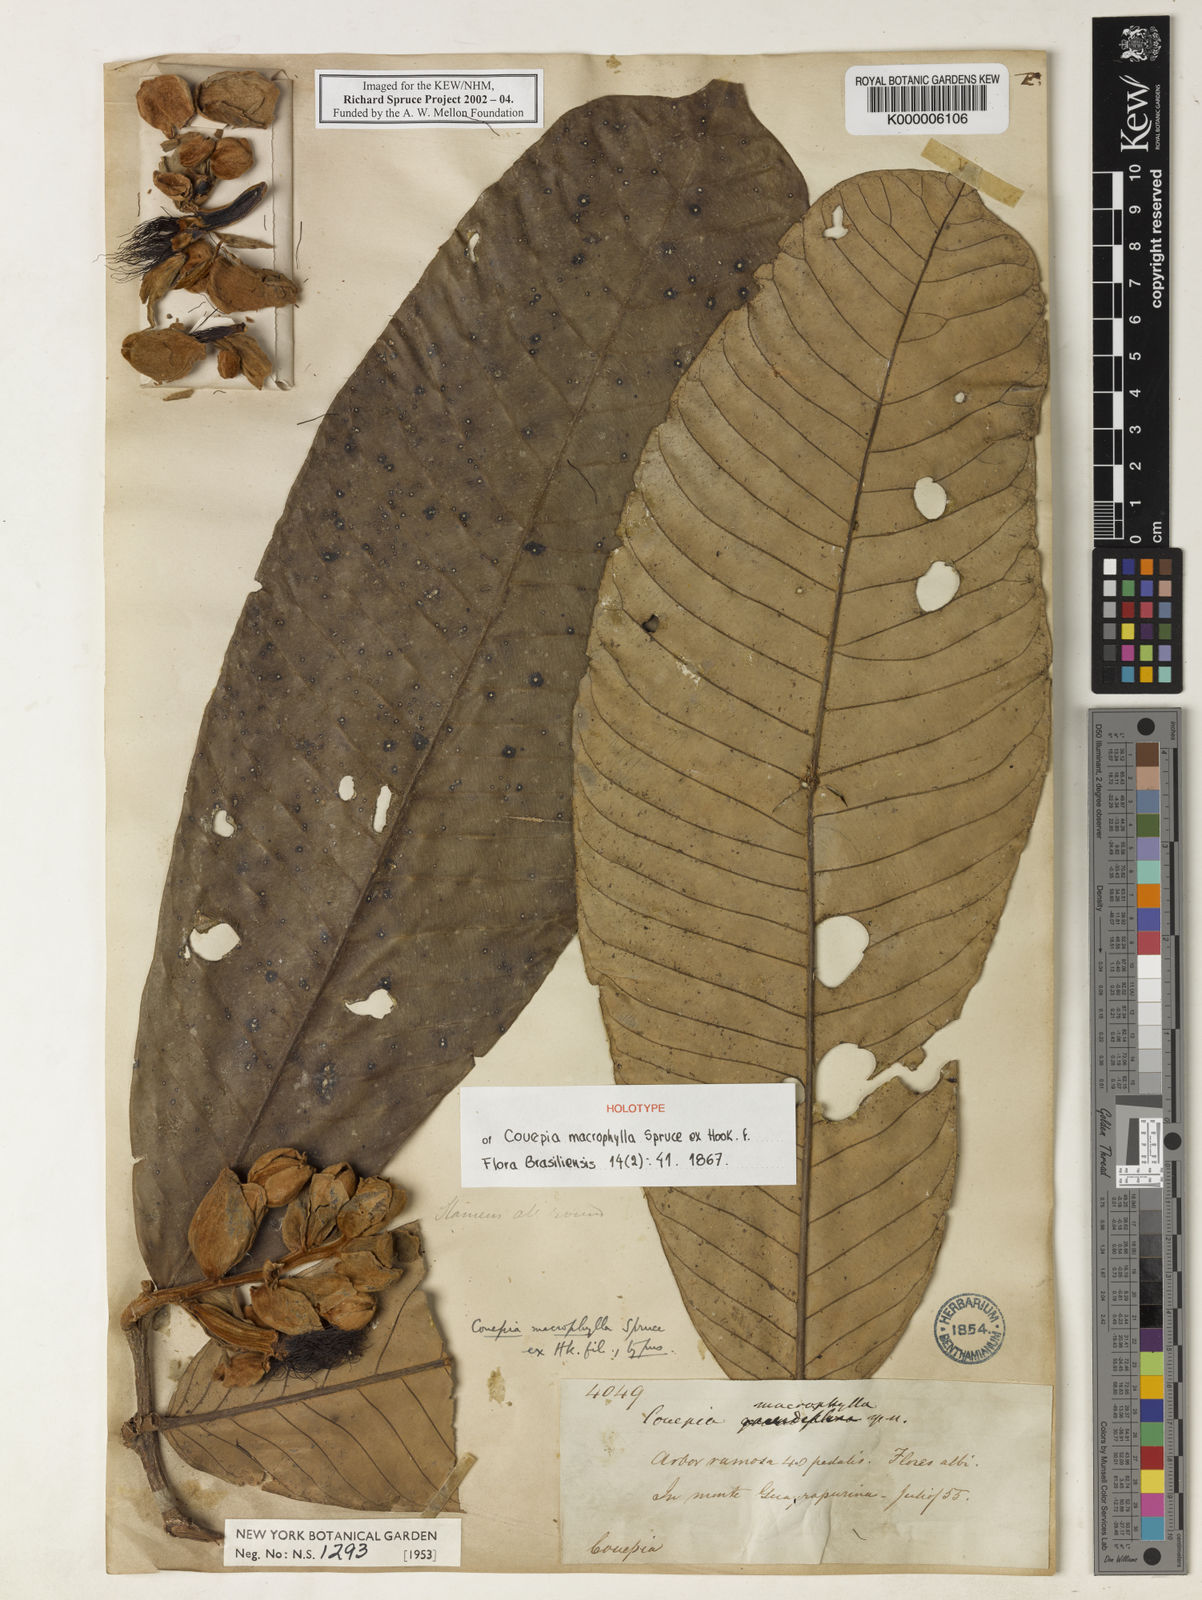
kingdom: Plantae
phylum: Tracheophyta
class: Magnoliopsida
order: Malpighiales
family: Chrysobalanaceae
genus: Couepia
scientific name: Couepia macrophylla
